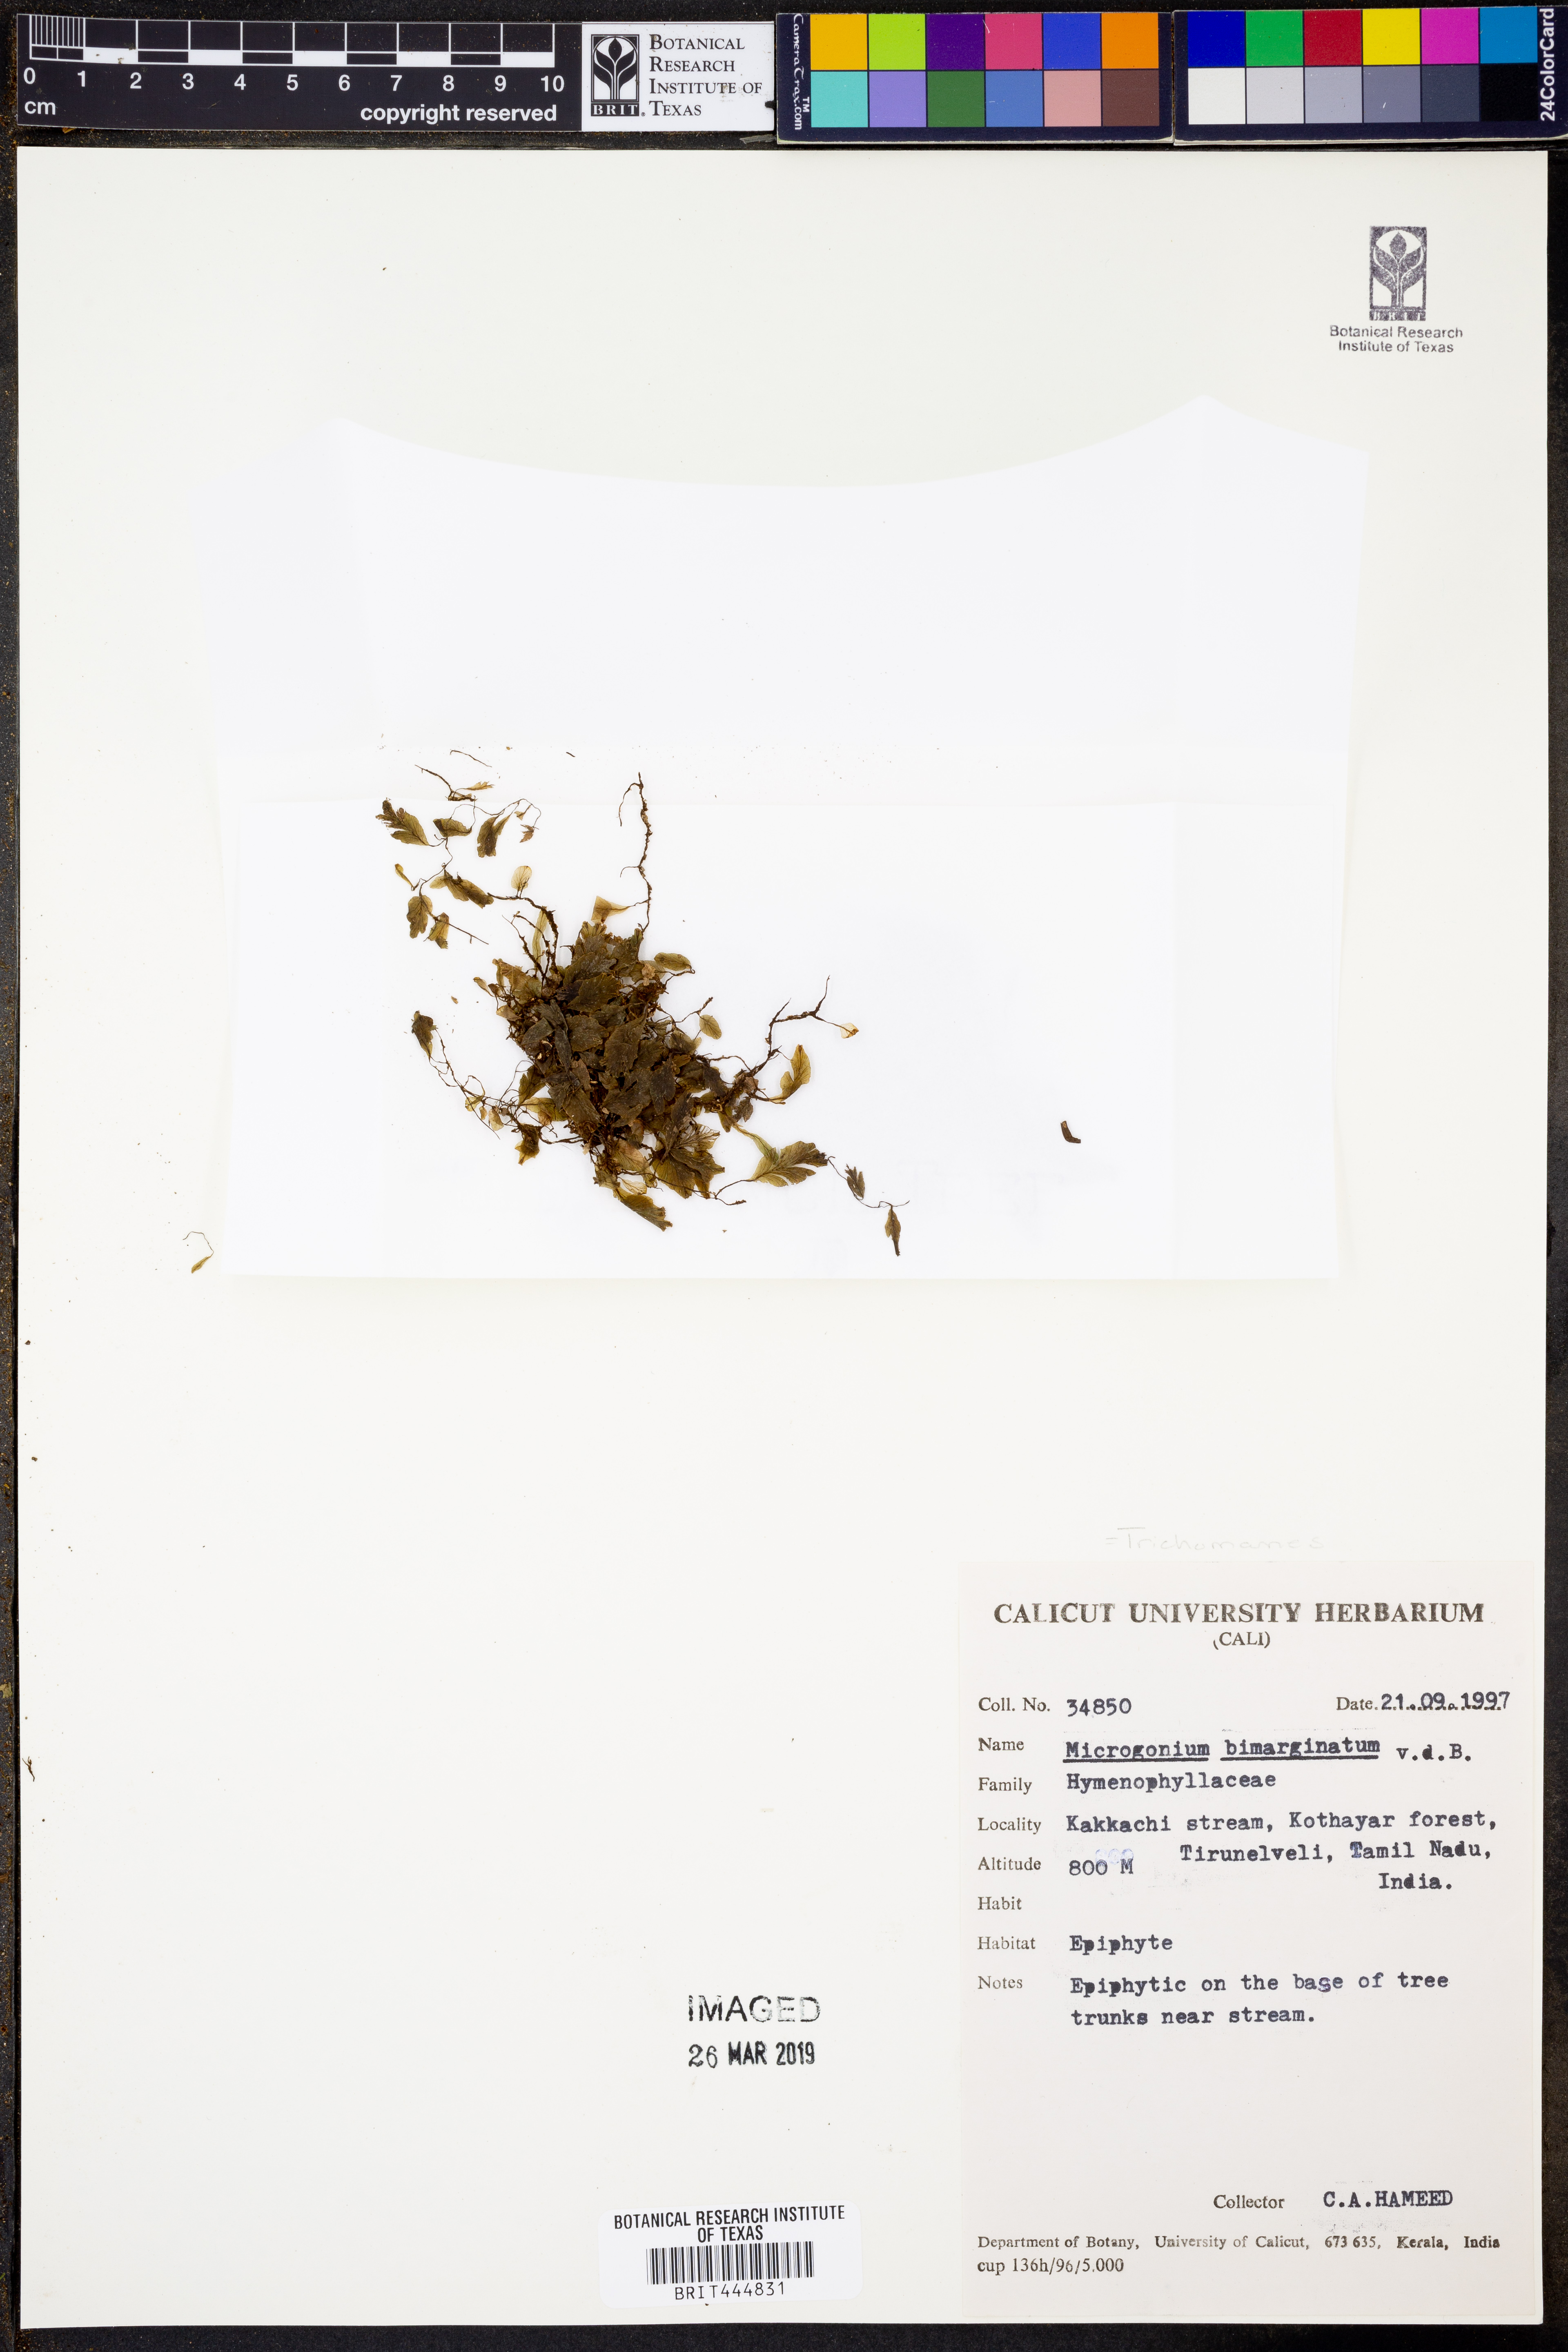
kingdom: Plantae
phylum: Tracheophyta
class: Polypodiopsida
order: Hymenophyllales
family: Hymenophyllaceae
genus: Didymoglossum
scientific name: Didymoglossum bimarginatum
